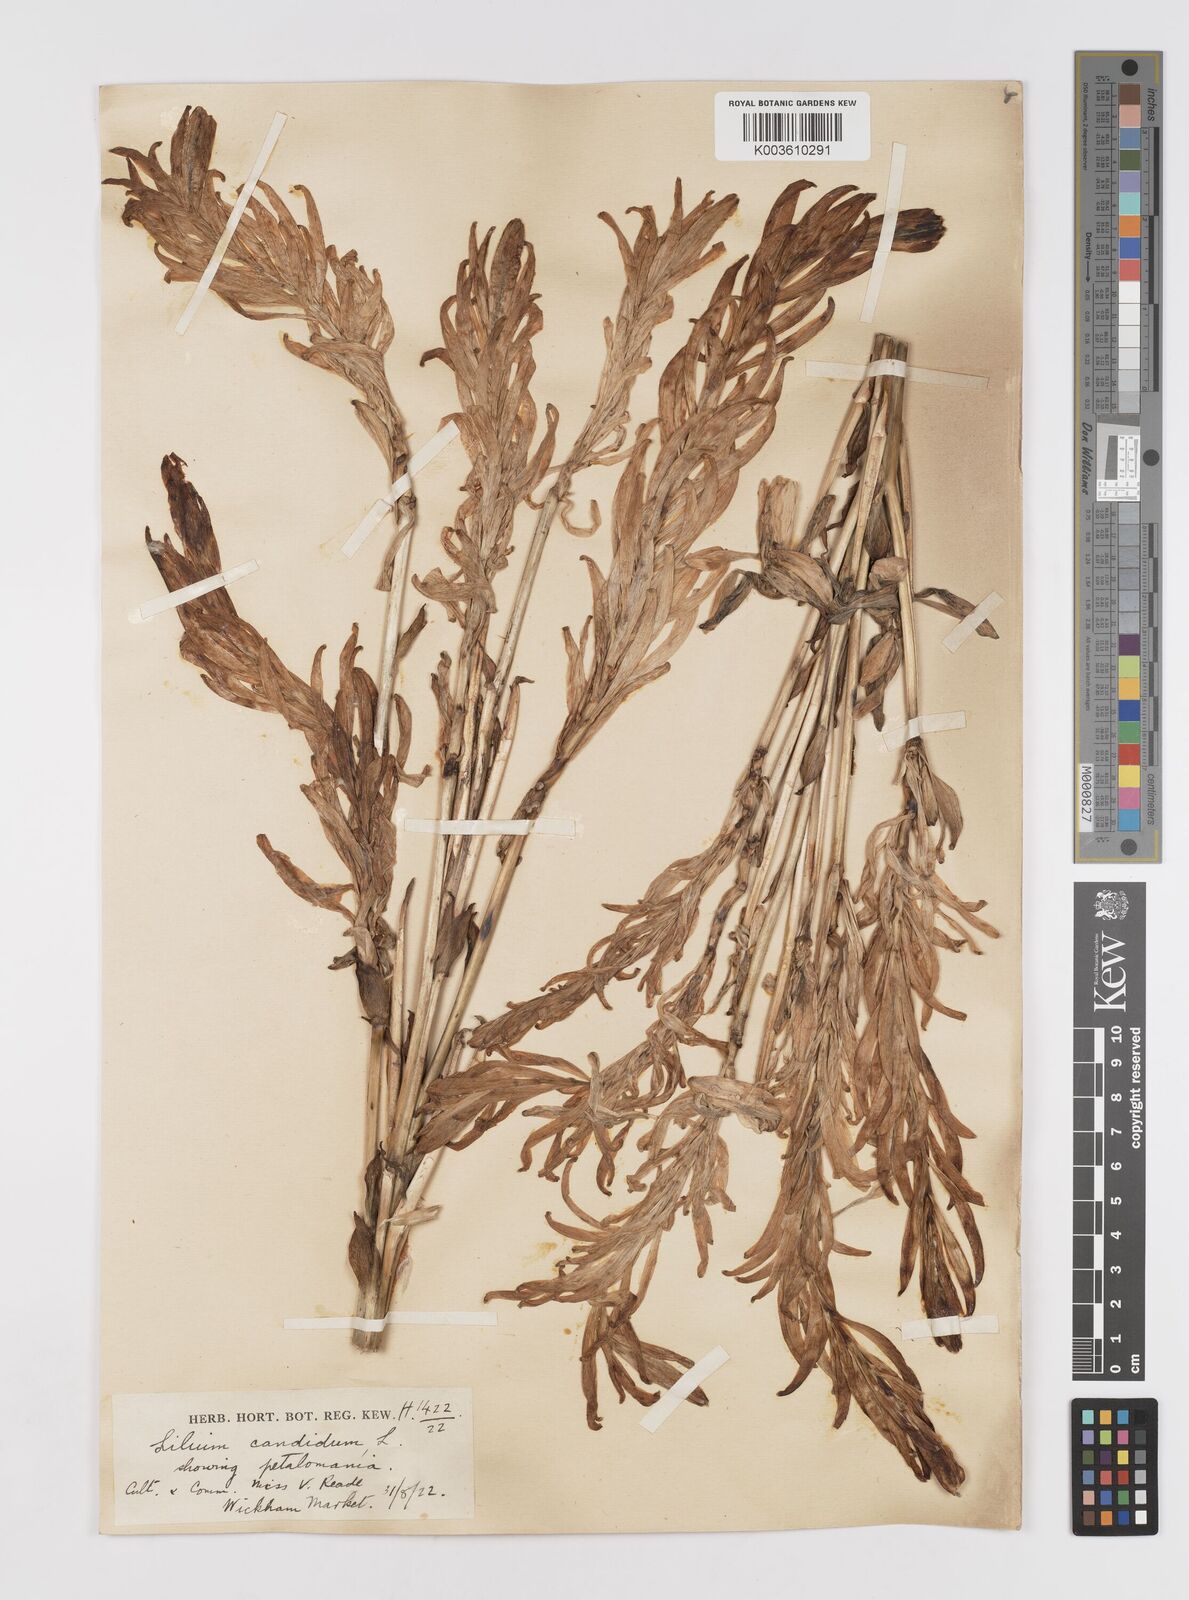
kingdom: Plantae
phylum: Tracheophyta
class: Liliopsida
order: Liliales
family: Liliaceae
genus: Lilium
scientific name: Lilium
